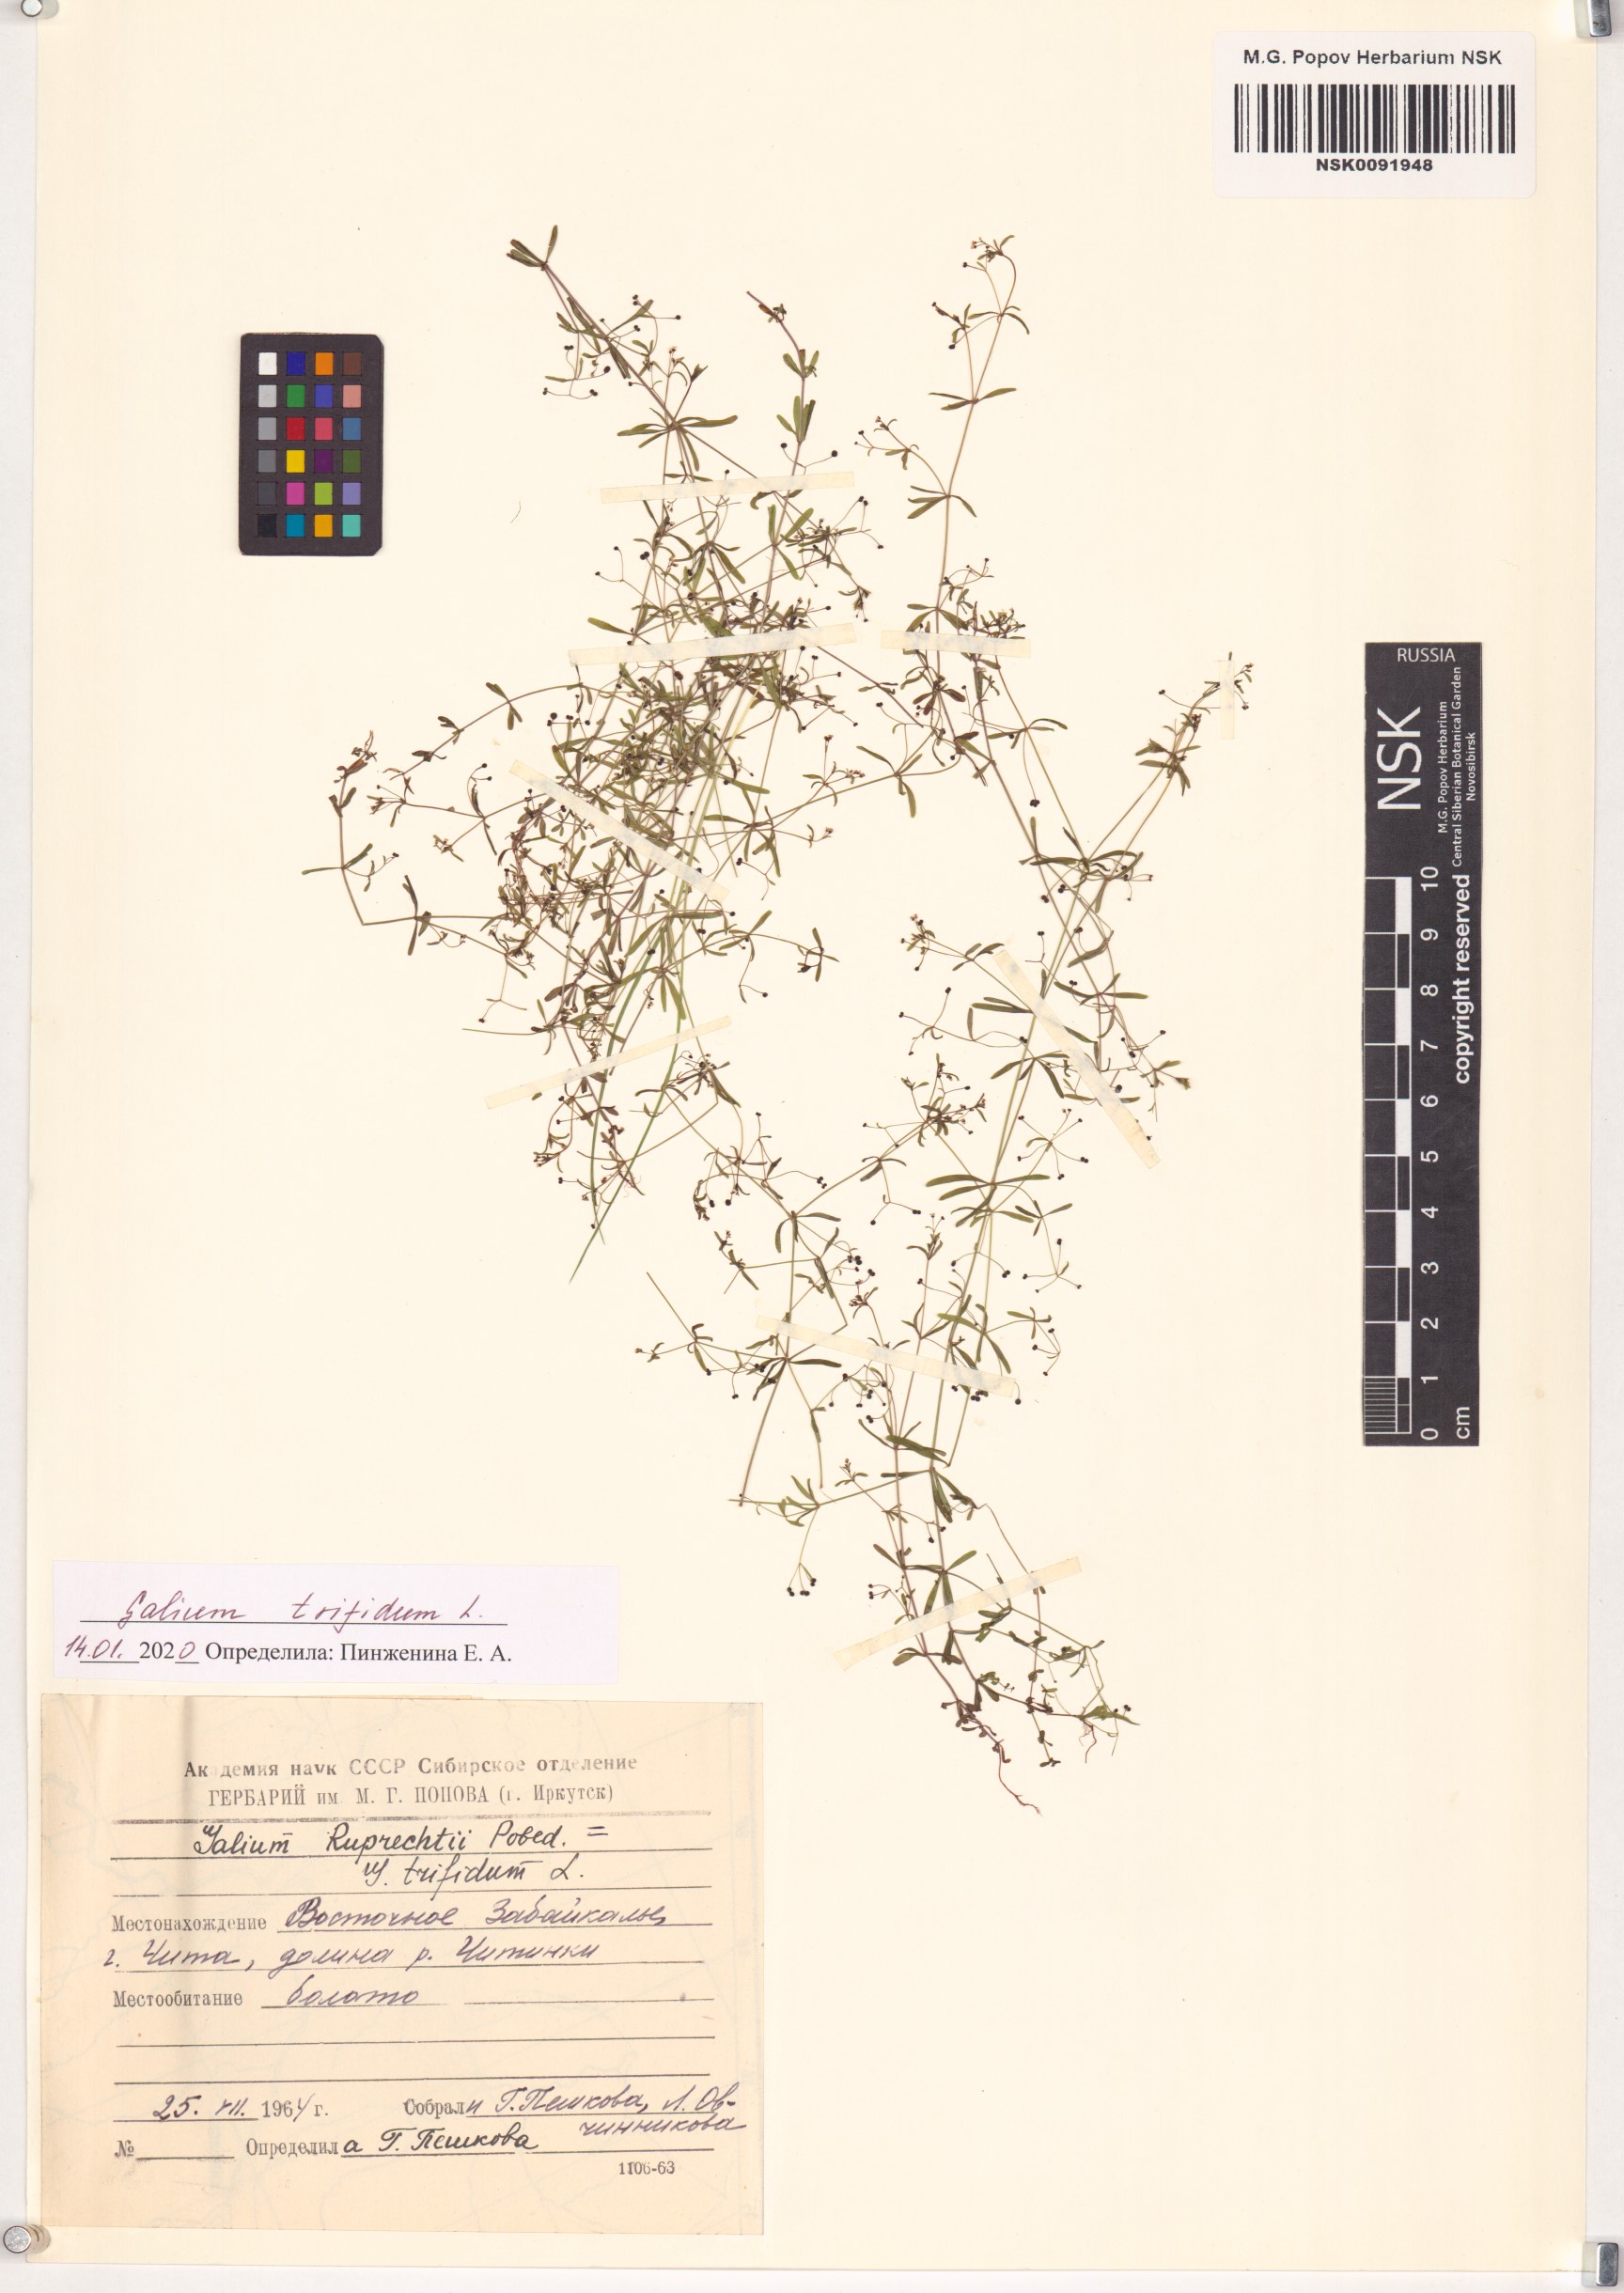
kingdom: Plantae
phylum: Tracheophyta
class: Magnoliopsida
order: Gentianales
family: Rubiaceae
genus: Galium
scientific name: Galium trifidum
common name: Small bedstraw
